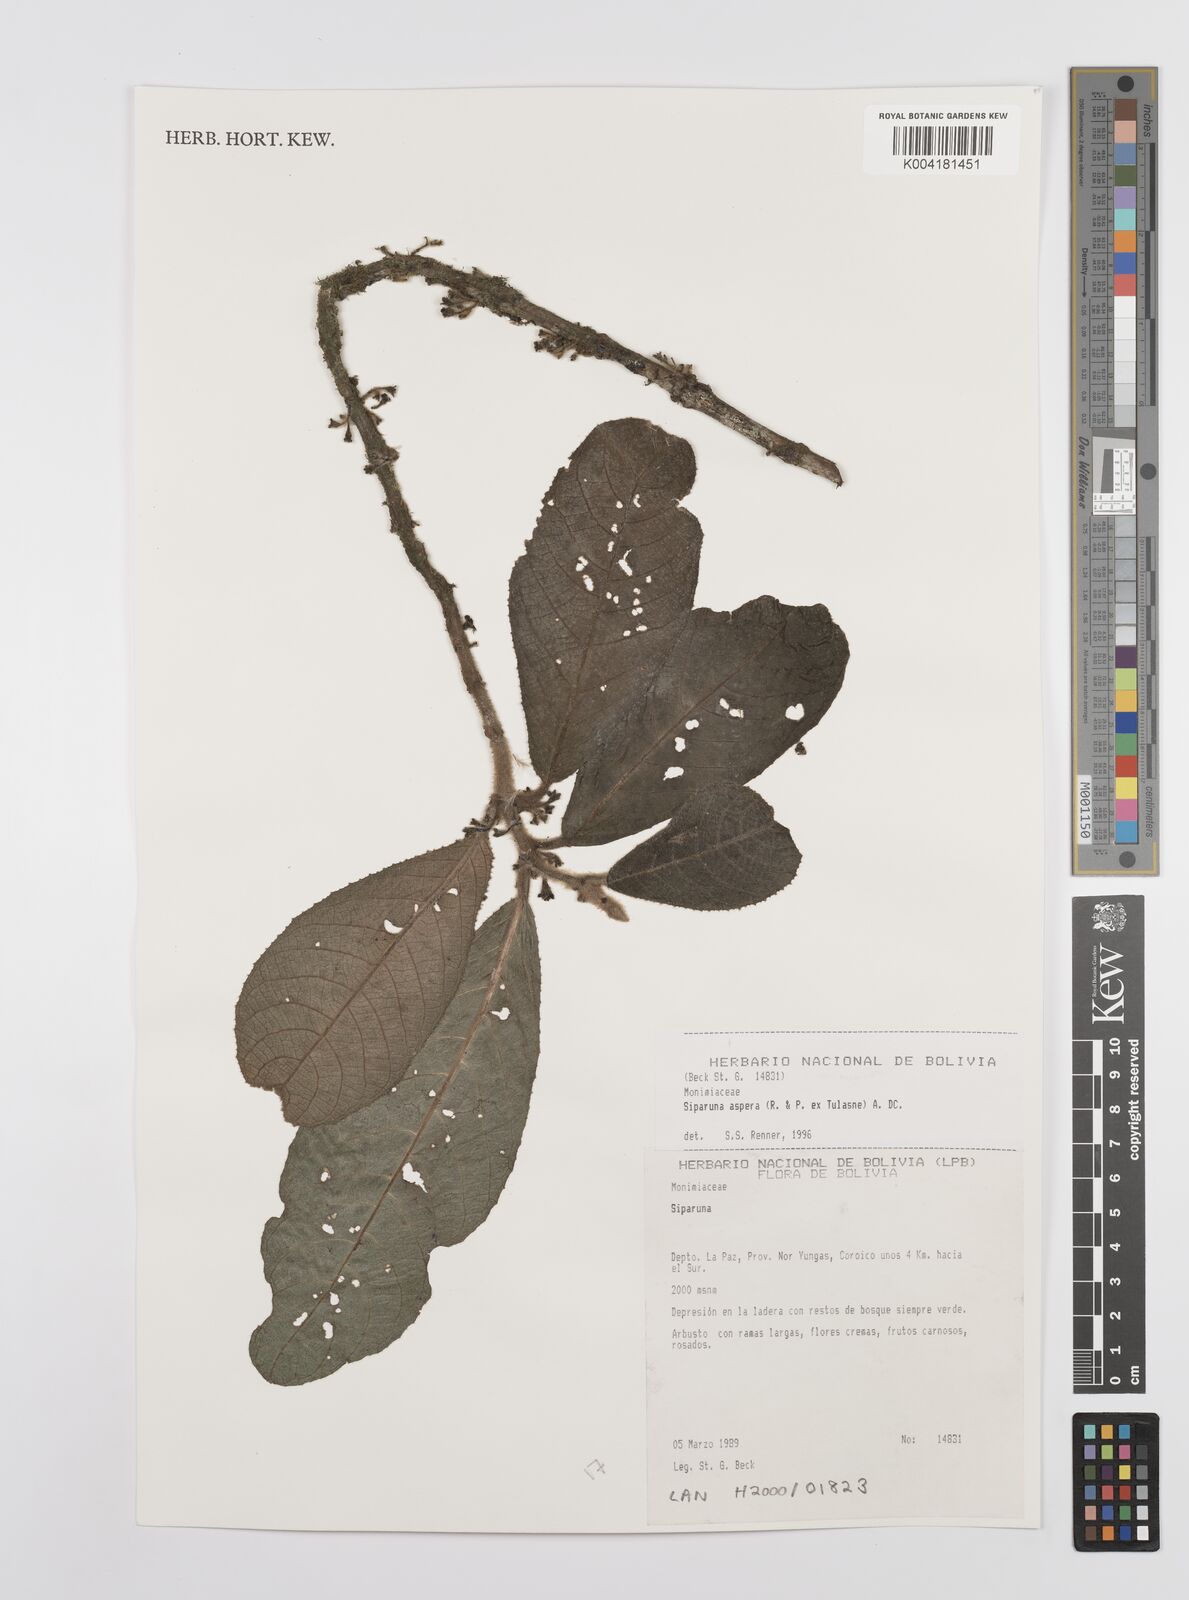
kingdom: Plantae
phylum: Tracheophyta
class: Magnoliopsida
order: Laurales
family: Siparunaceae
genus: Siparuna
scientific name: Siparuna aspera
